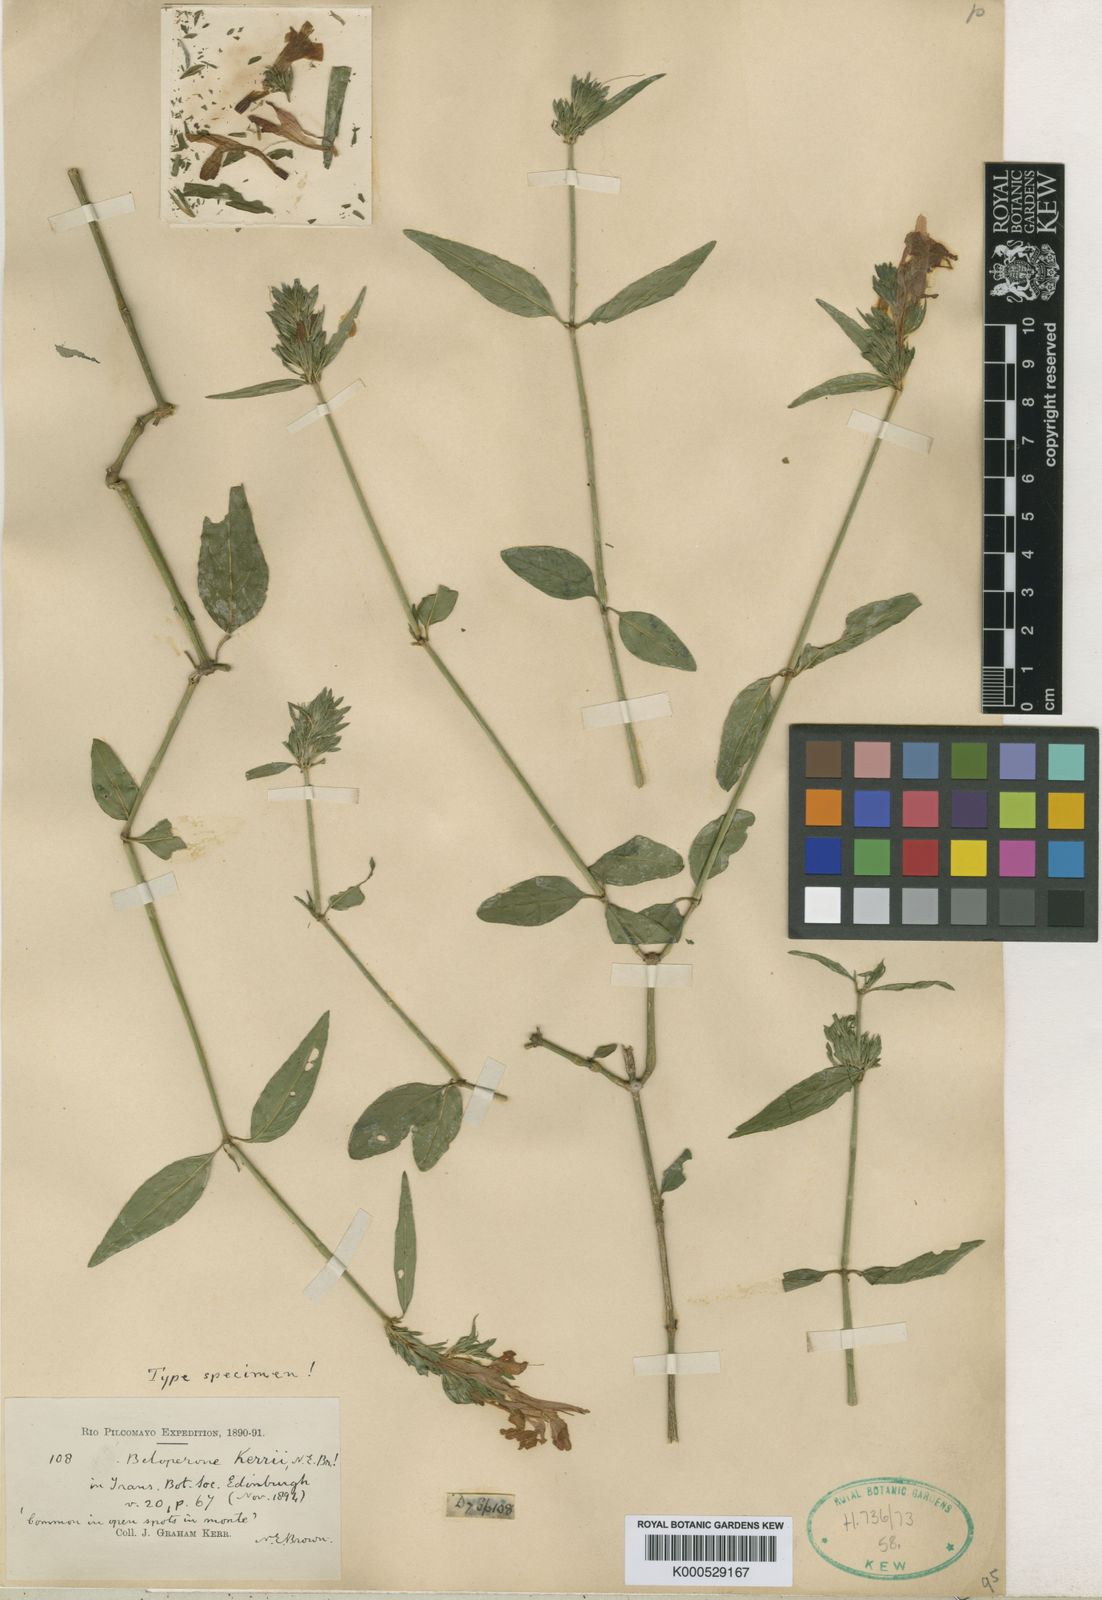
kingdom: Plantae
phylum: Tracheophyta
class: Magnoliopsida
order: Lamiales
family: Acanthaceae
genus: Justicia
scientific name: Justicia dumetorum
